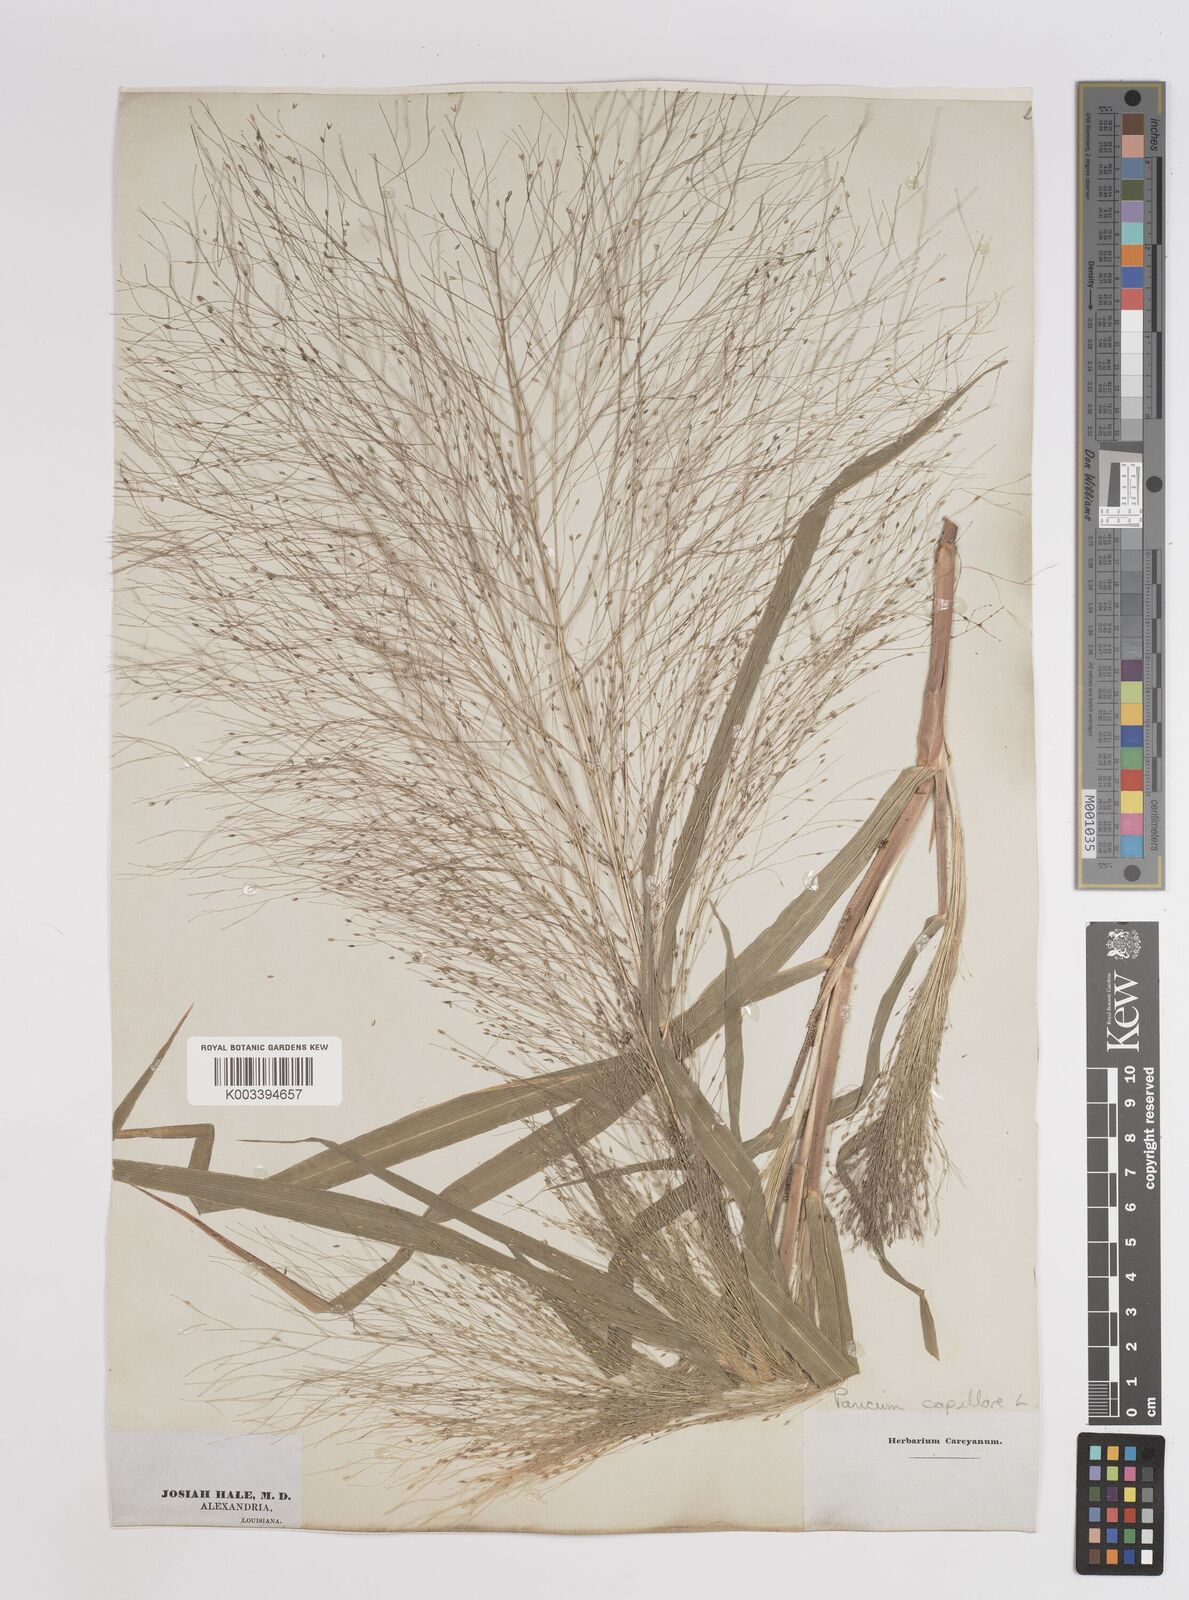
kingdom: Plantae
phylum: Tracheophyta
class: Liliopsida
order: Poales
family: Poaceae
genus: Panicum
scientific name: Panicum capillare
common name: Witch-grass
